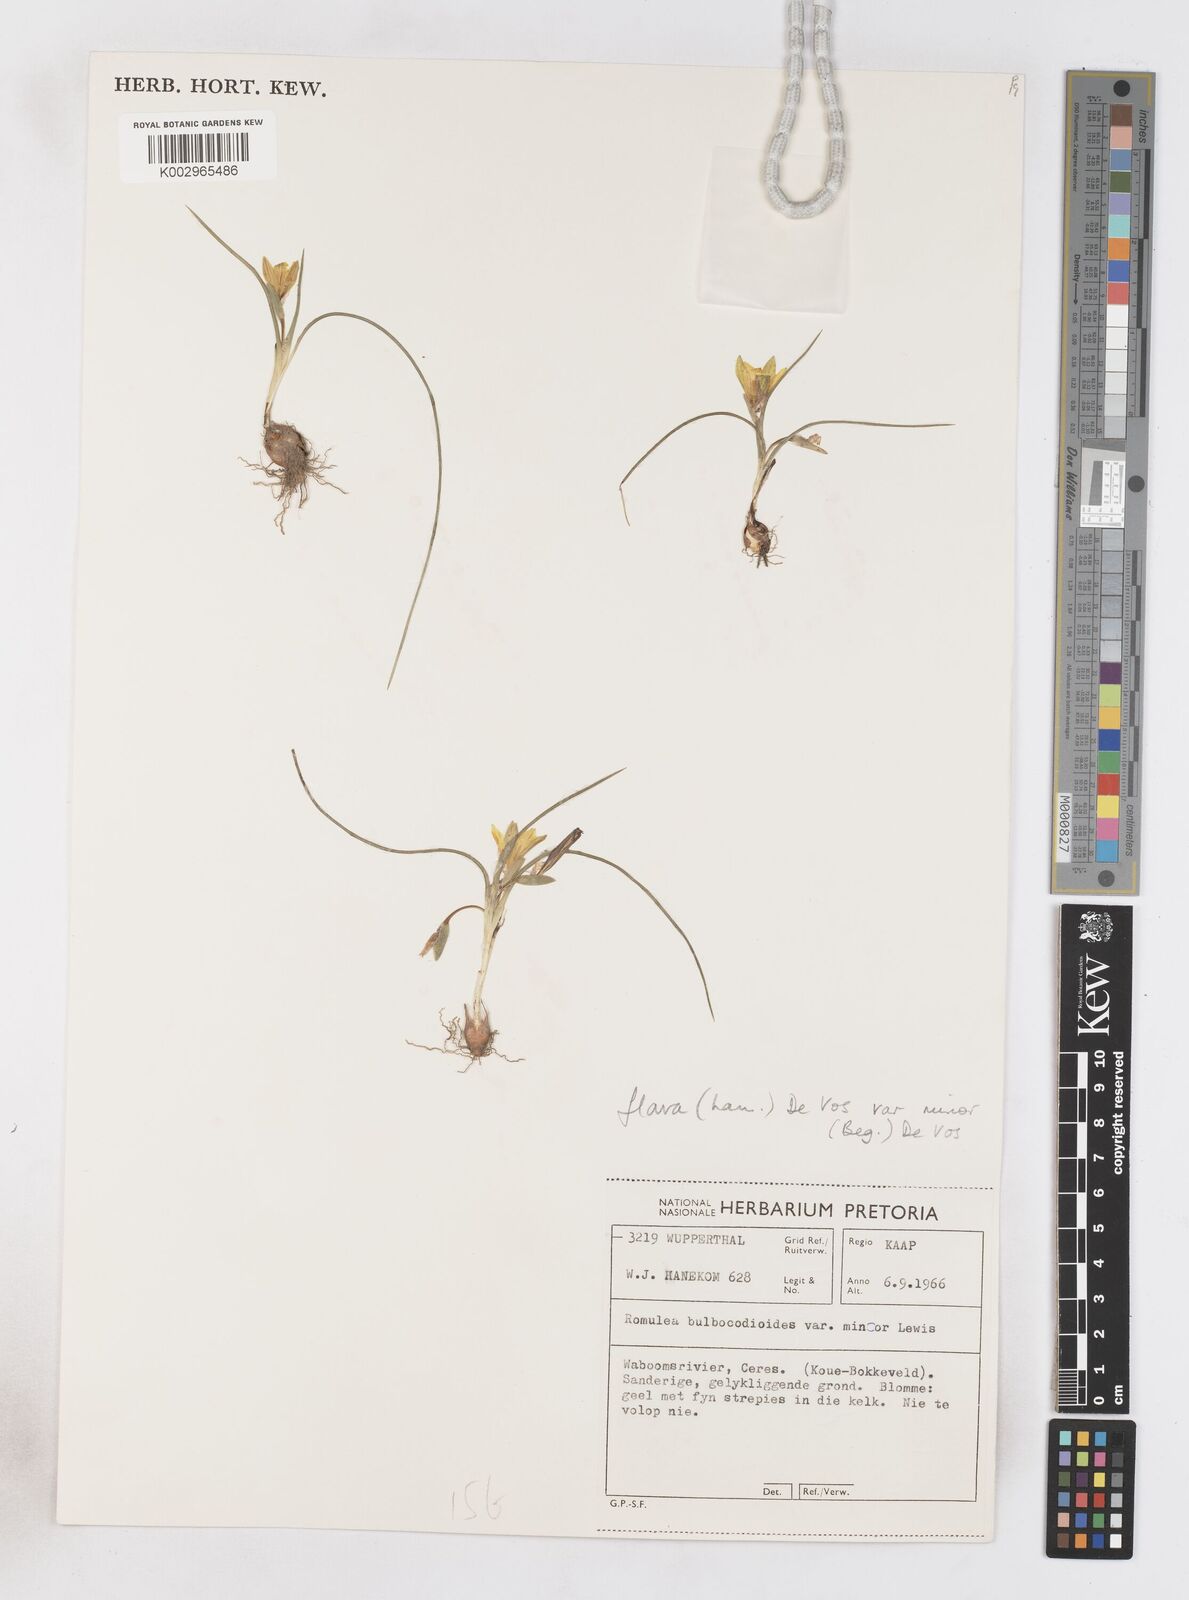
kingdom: Plantae
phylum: Tracheophyta
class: Liliopsida
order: Asparagales
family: Iridaceae
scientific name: Iridaceae
